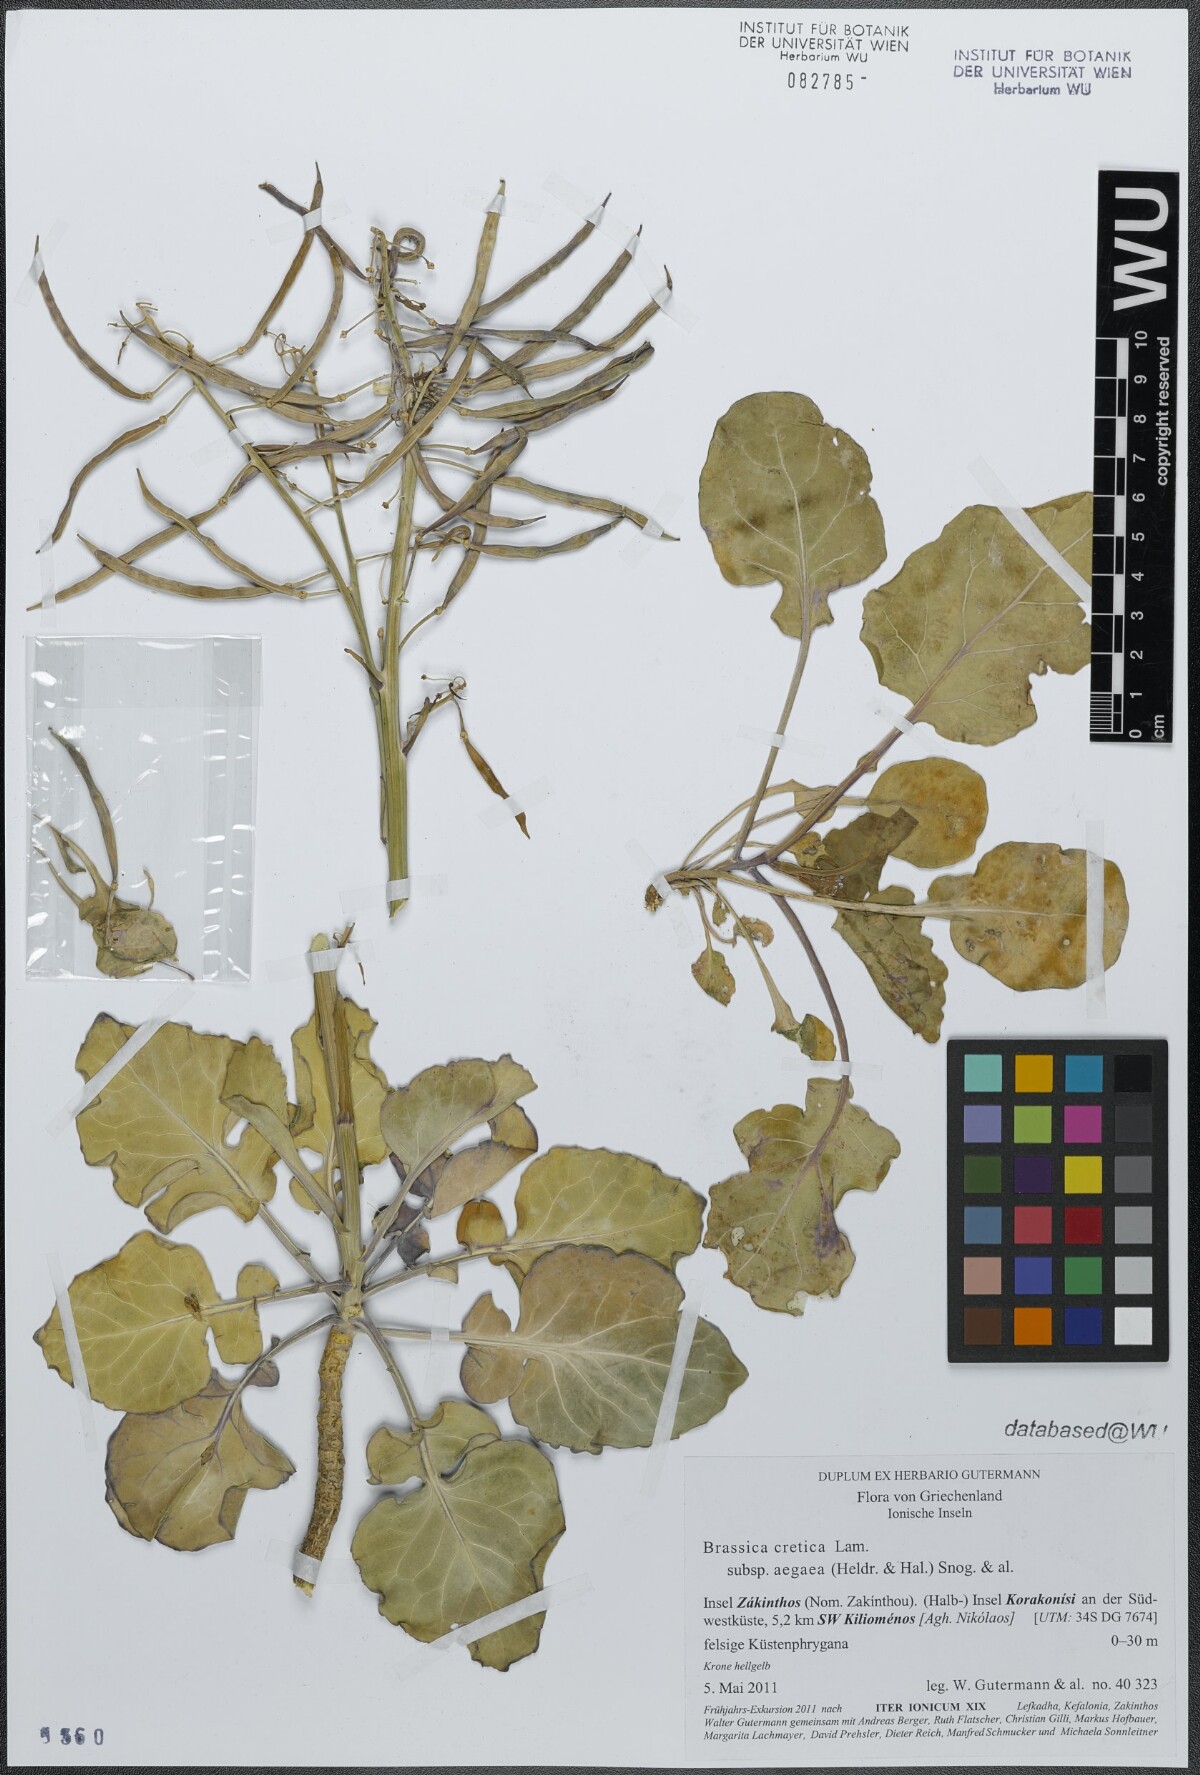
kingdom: Plantae
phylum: Tracheophyta
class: Magnoliopsida
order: Brassicales
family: Brassicaceae
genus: Brassica
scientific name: Brassica cretica
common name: Mustard
